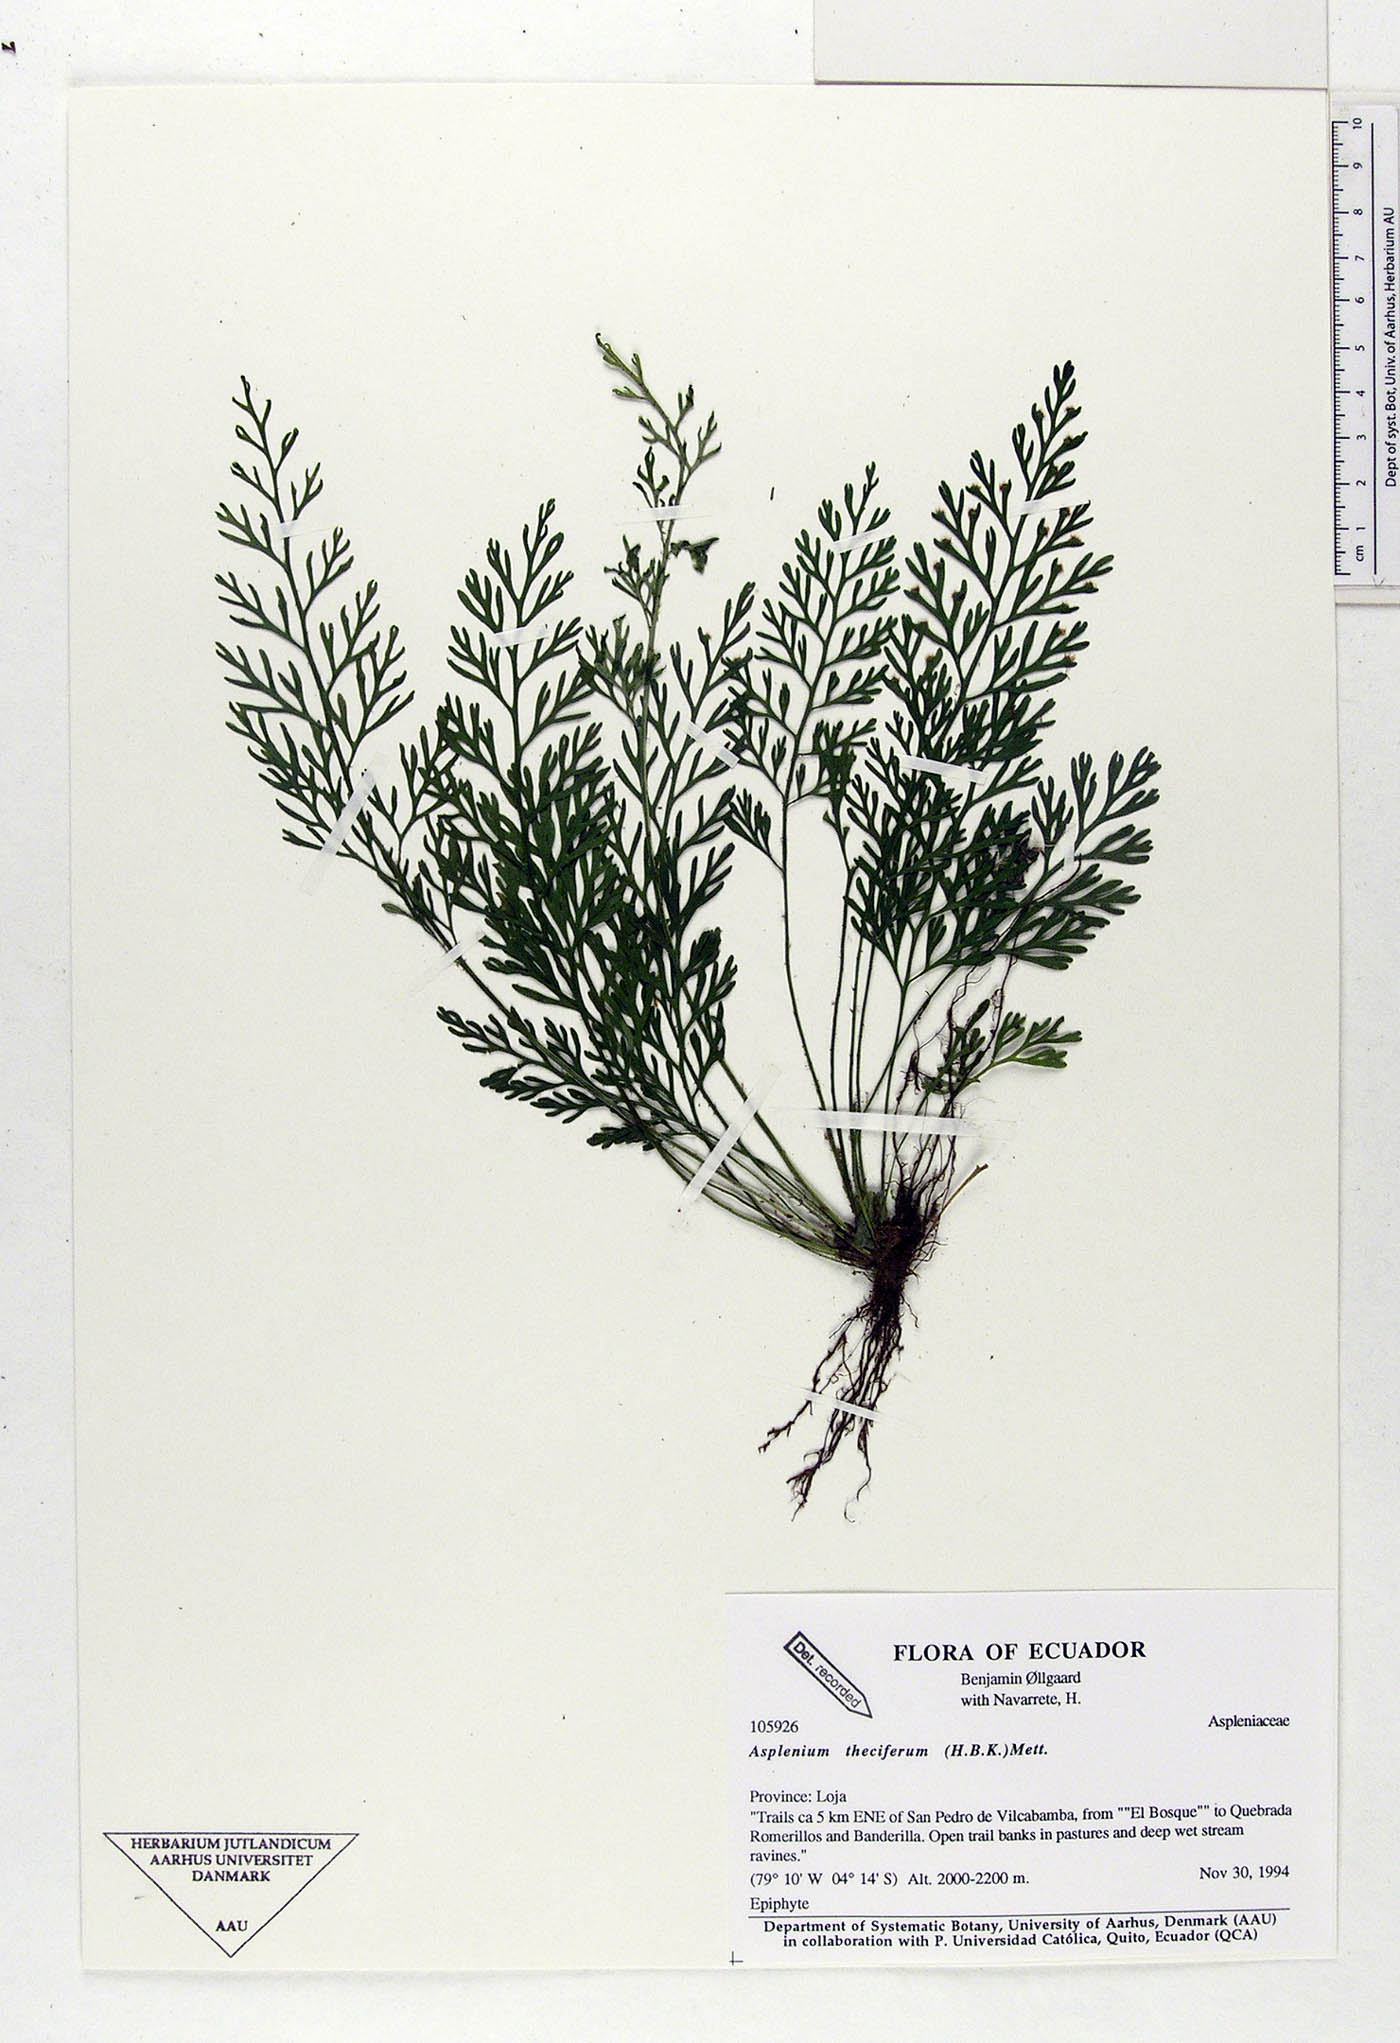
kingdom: Plantae
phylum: Tracheophyta
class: Polypodiopsida
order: Polypodiales
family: Aspleniaceae
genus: Asplenium
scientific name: Asplenium theciferum
